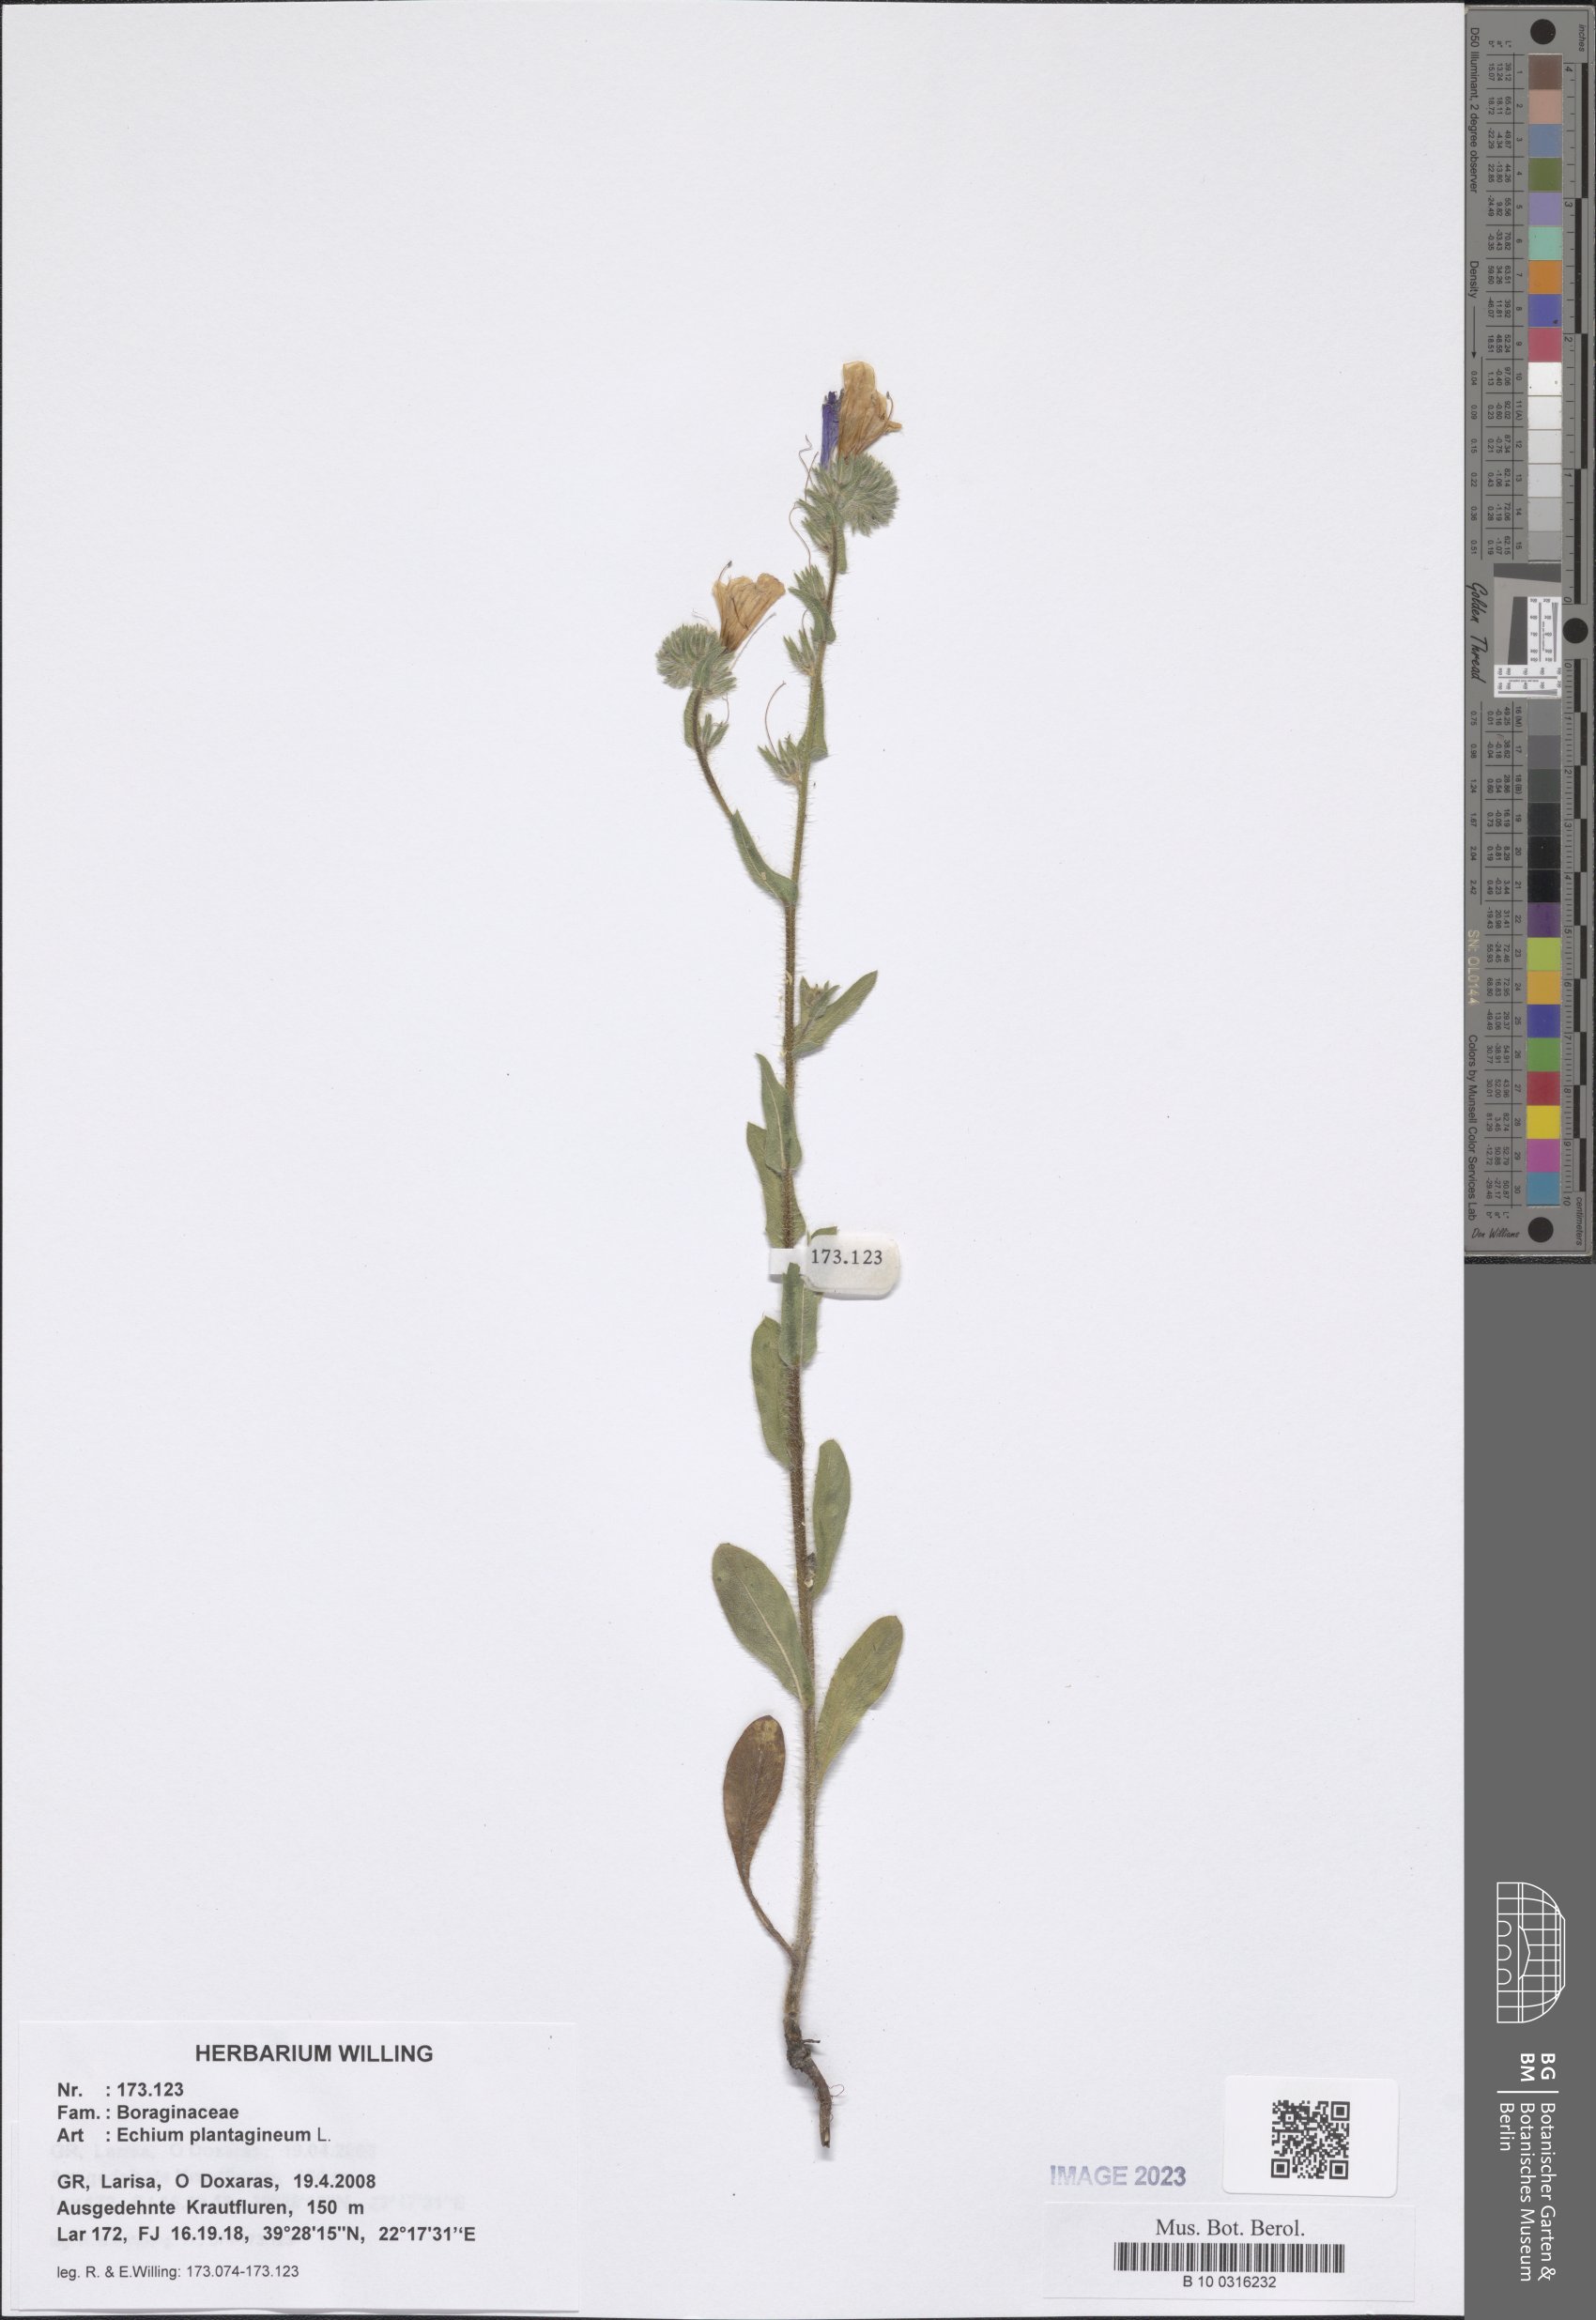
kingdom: Plantae
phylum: Tracheophyta
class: Magnoliopsida
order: Boraginales
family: Boraginaceae
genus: Echium
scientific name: Echium plantagineum
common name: Purple viper's-bugloss
